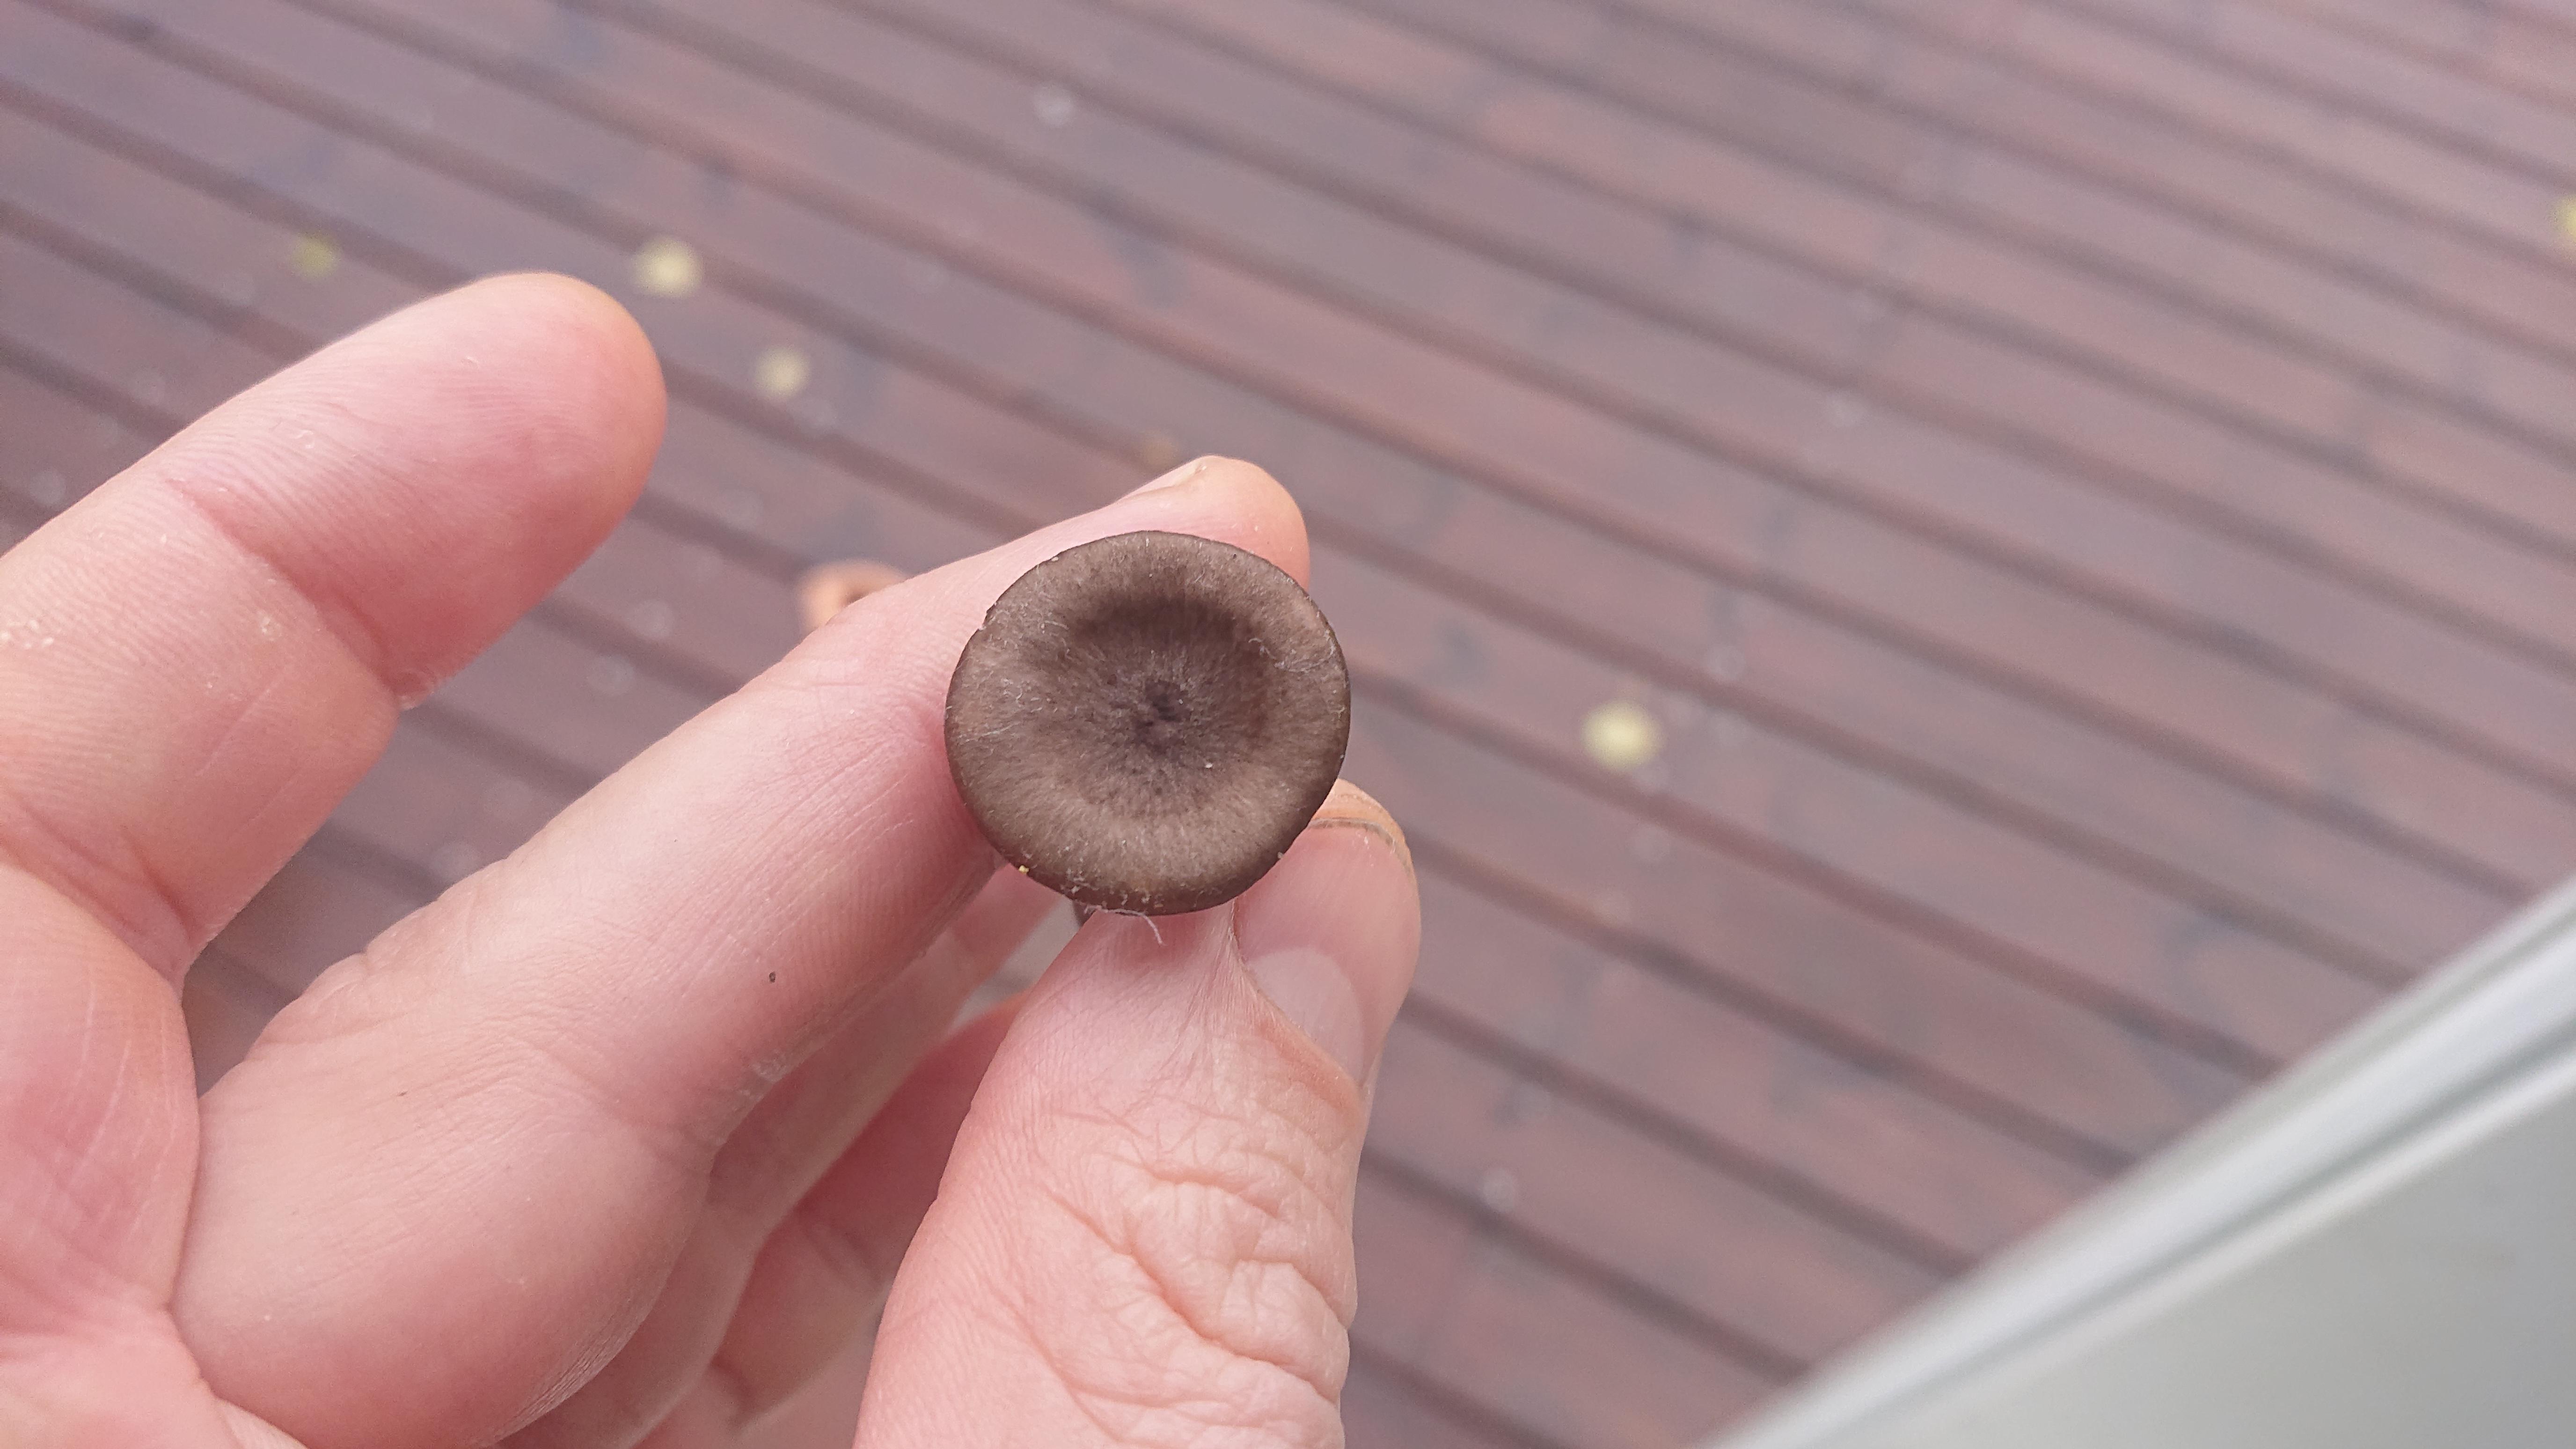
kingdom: Fungi
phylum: Basidiomycota
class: Agaricomycetes
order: Agaricales
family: Pseudoclitocybaceae
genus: Pseudoclitocybe
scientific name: Pseudoclitocybe cyathiformis
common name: almindelig bægertragthat
